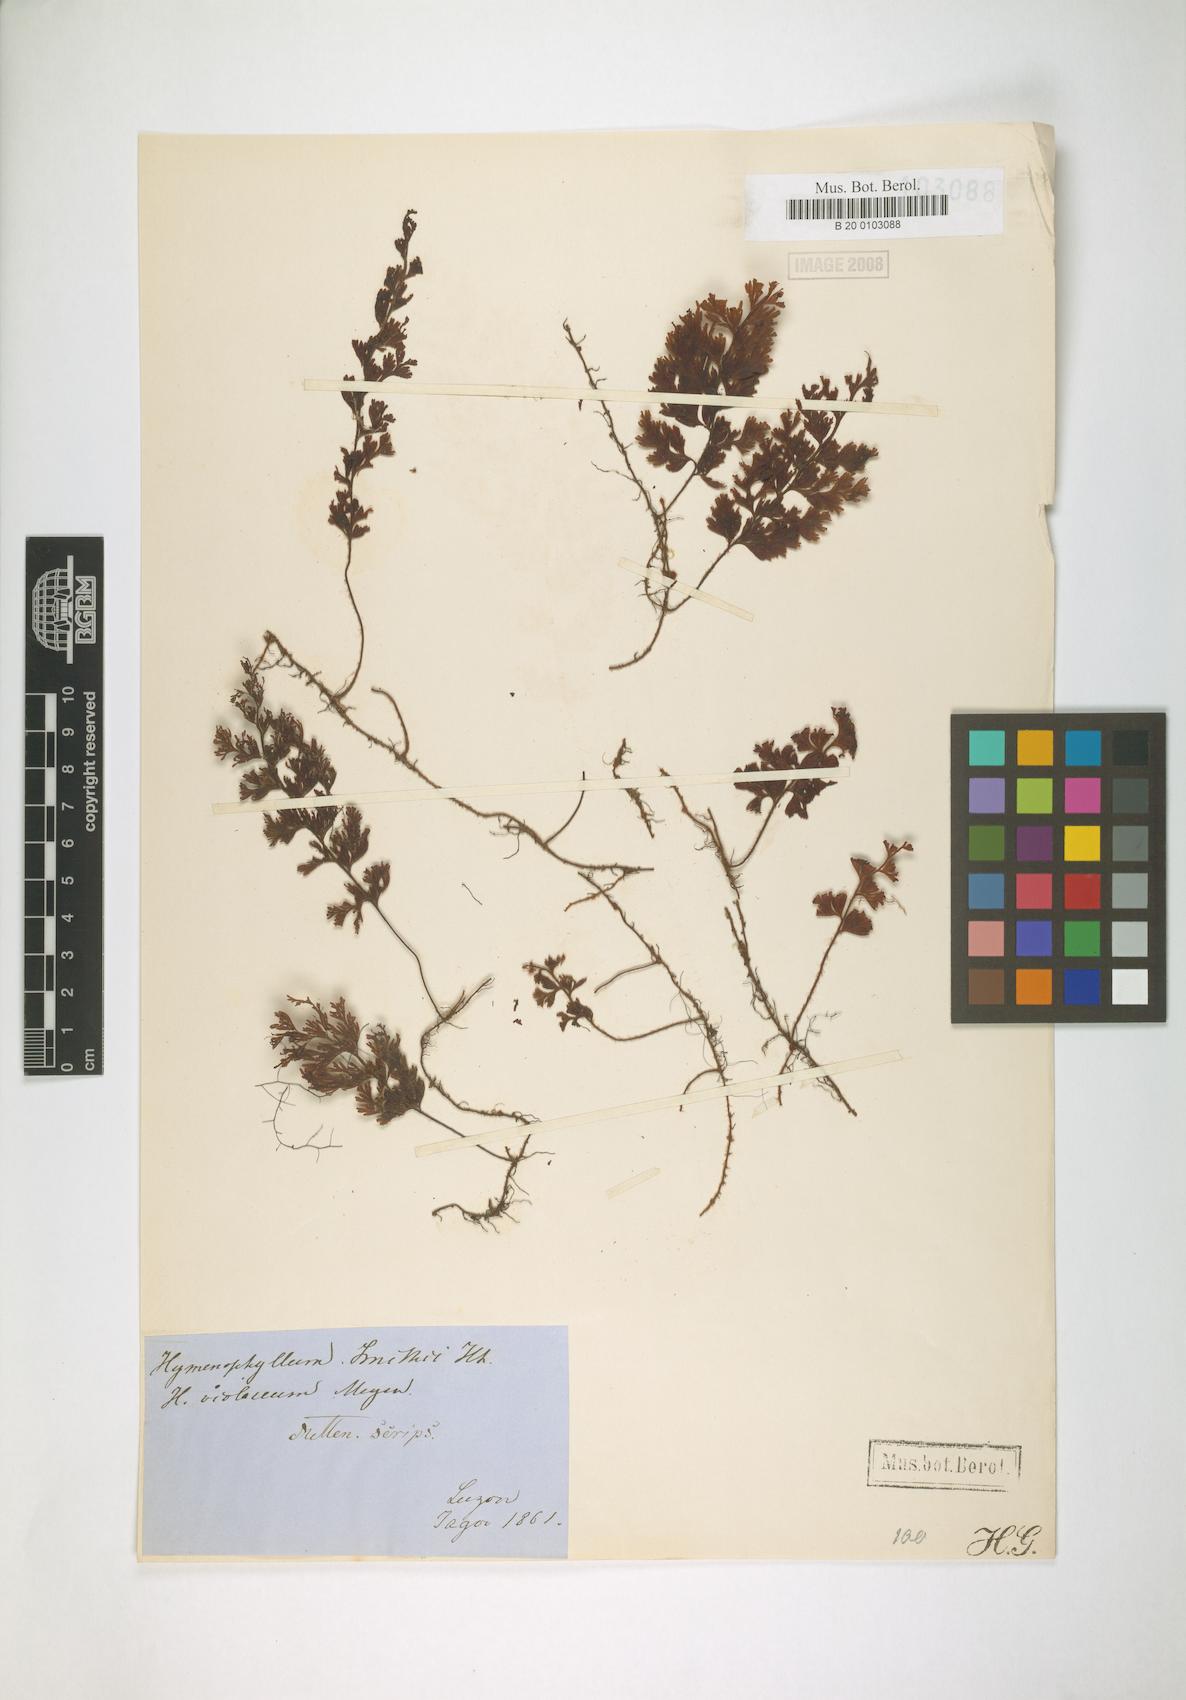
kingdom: Plantae
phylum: Tracheophyta
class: Polypodiopsida
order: Hymenophyllales
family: Hymenophyllaceae
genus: Hymenophyllum
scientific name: Hymenophyllum violaceum
